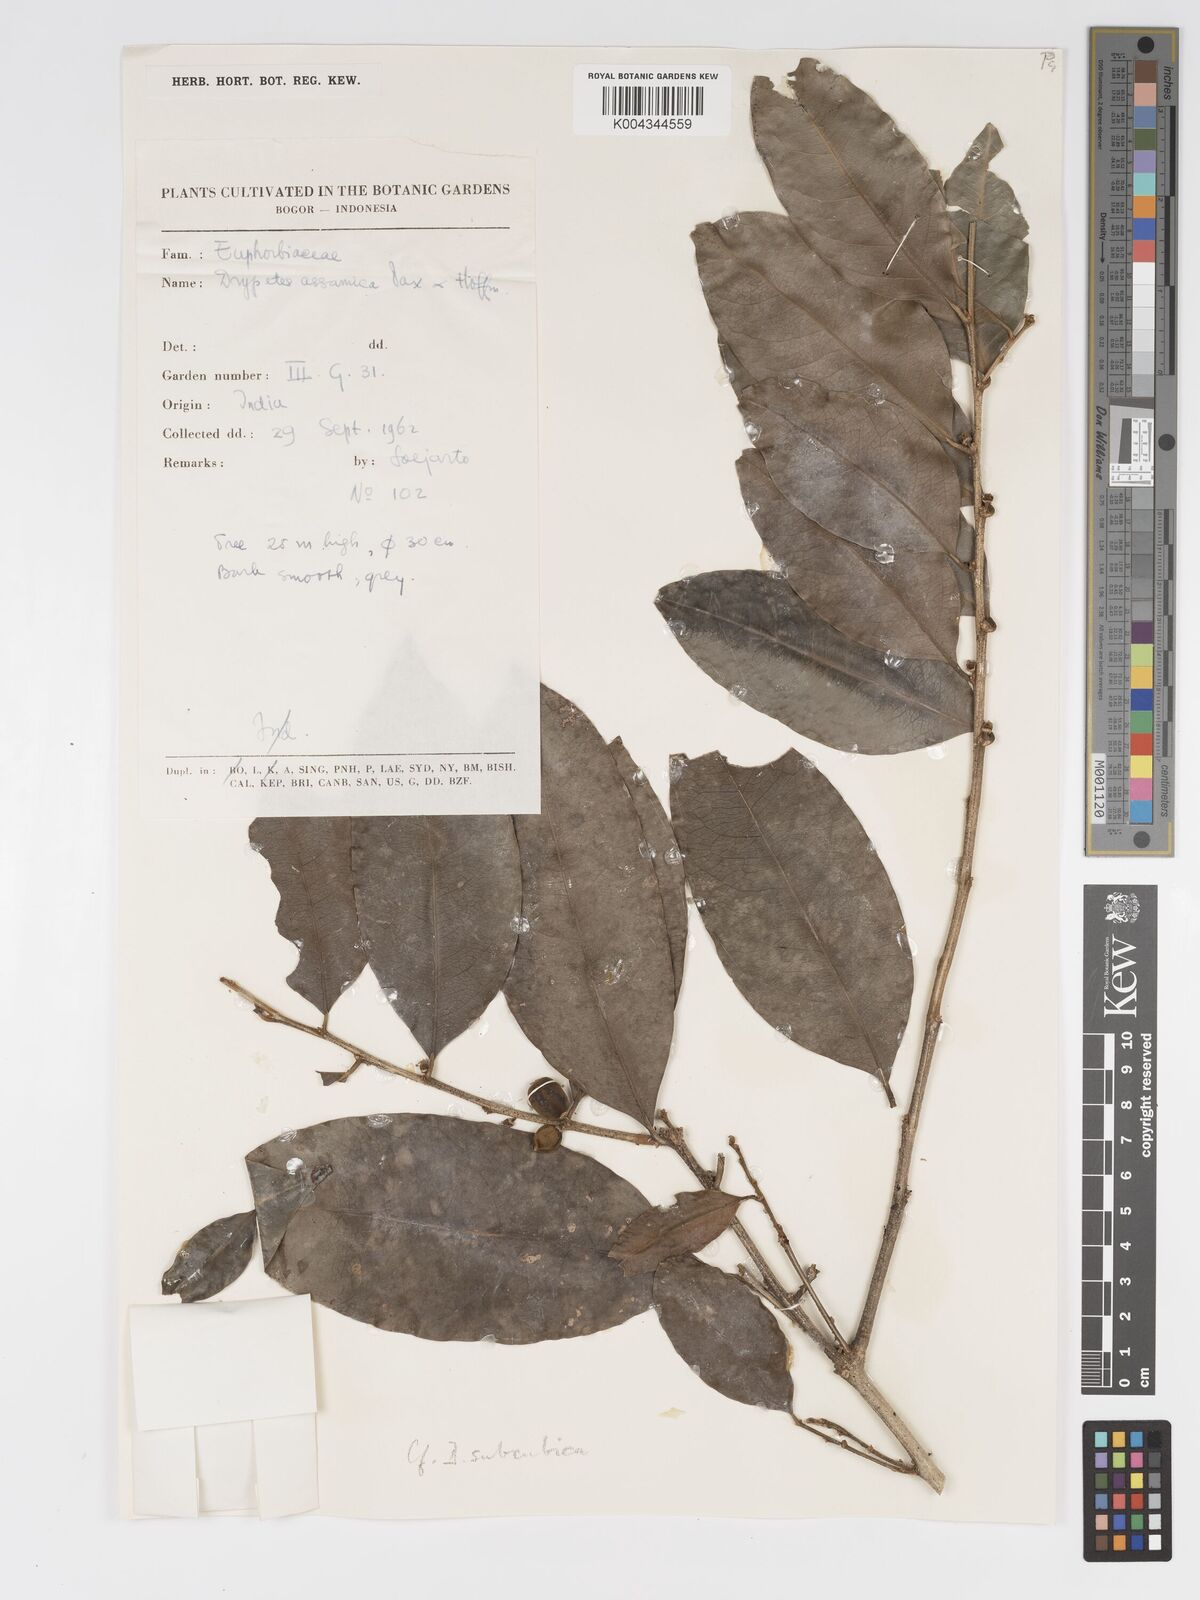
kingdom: Plantae
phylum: Tracheophyta
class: Magnoliopsida
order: Malpighiales
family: Putranjivaceae
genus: Drypetes
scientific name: Drypetes assamica
